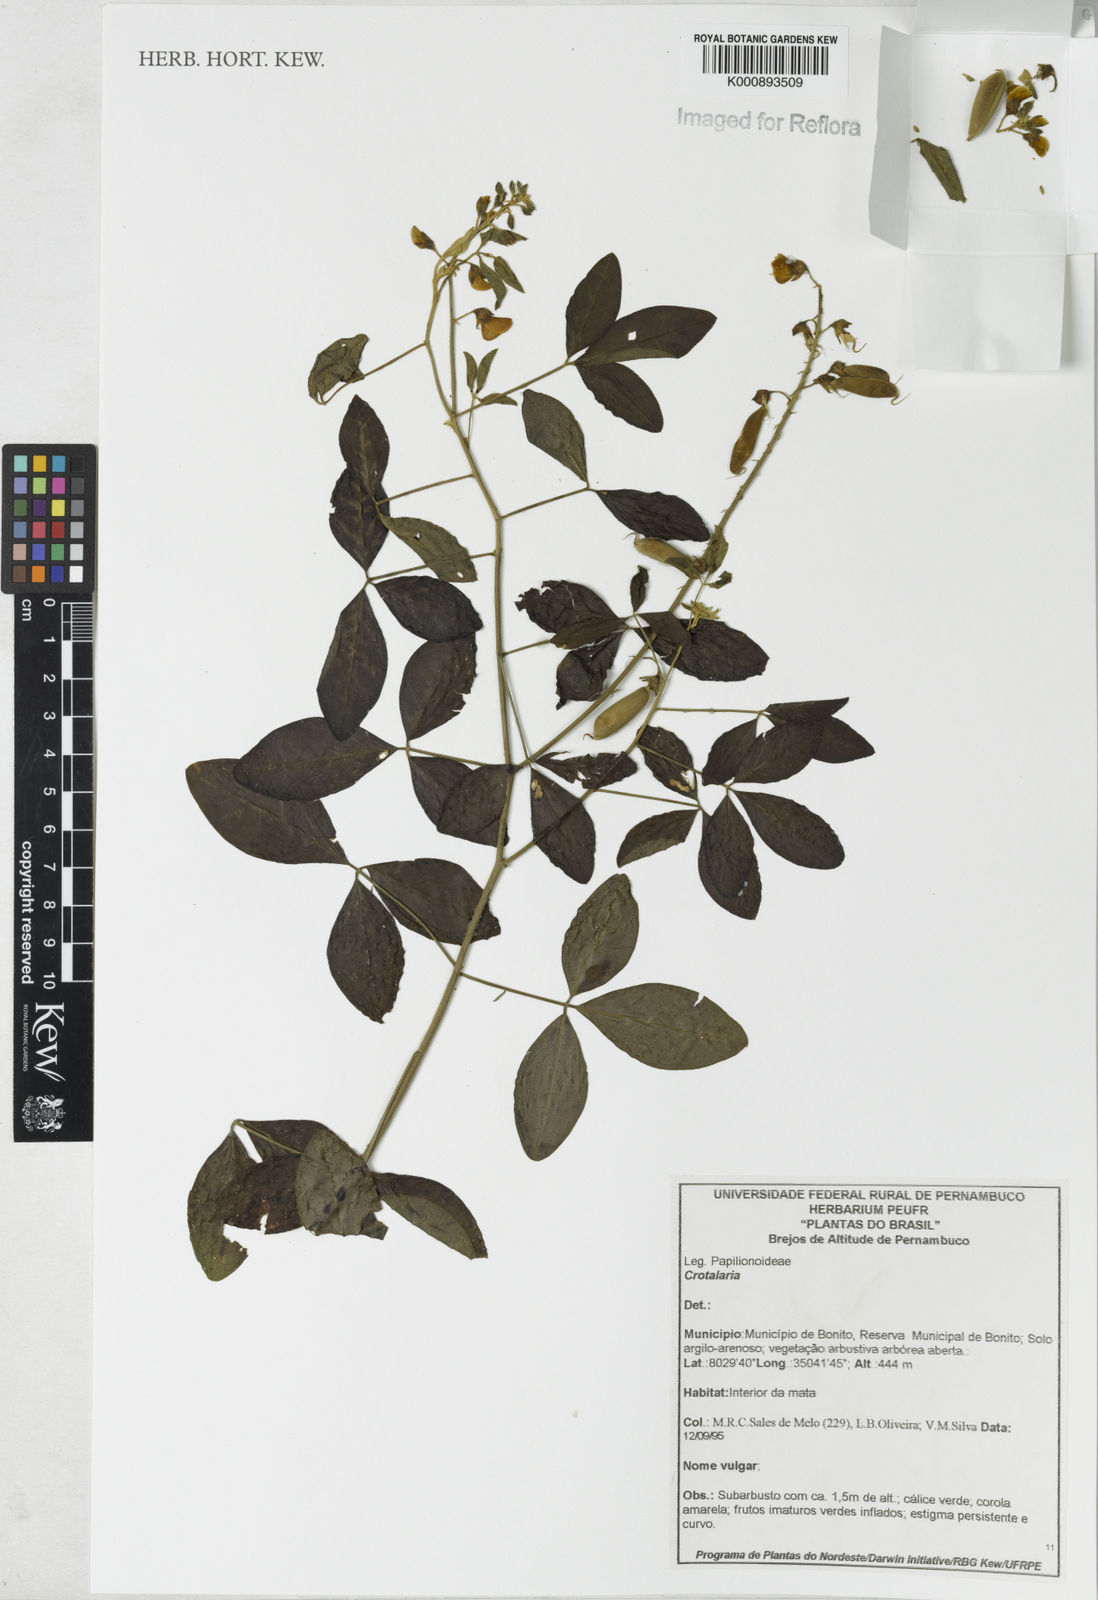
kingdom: Plantae
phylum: Tracheophyta
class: Magnoliopsida
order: Fabales
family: Fabaceae
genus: Crotalaria
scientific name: Crotalaria vitellina
